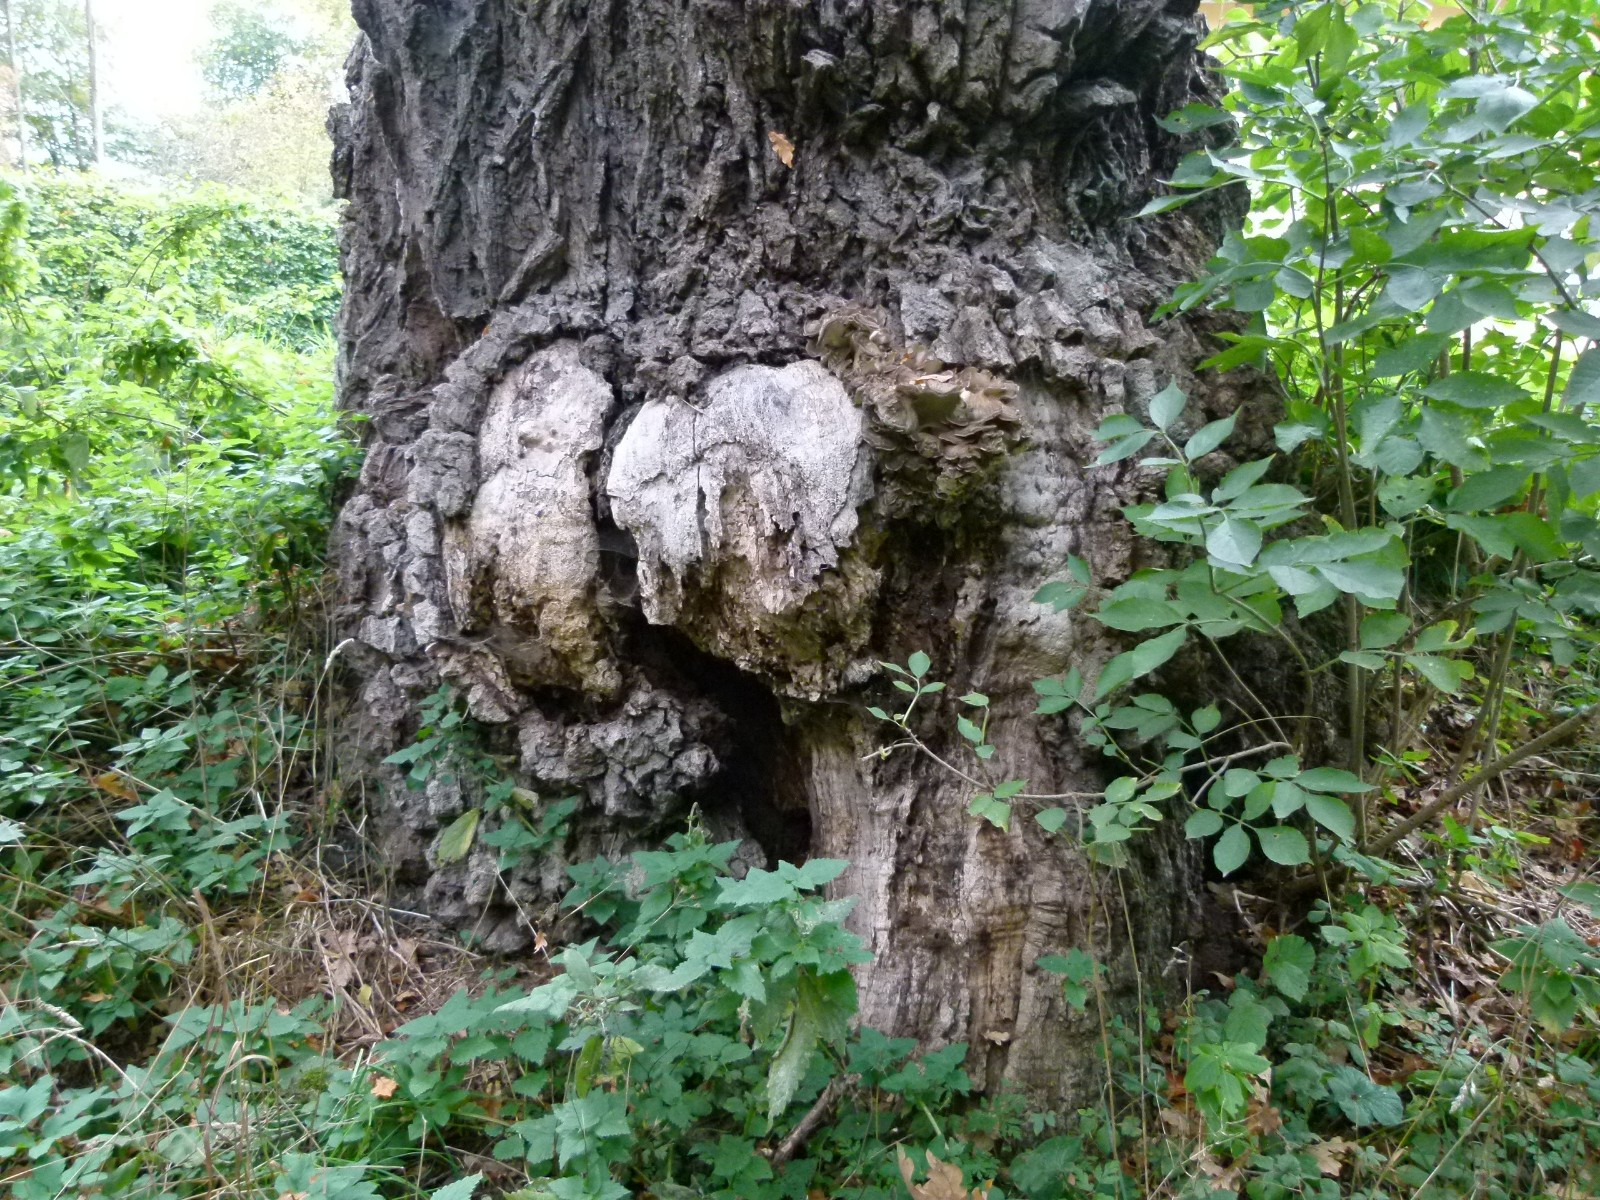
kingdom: Fungi
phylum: Basidiomycota
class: Agaricomycetes
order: Polyporales
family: Grifolaceae
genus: Grifola
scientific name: Grifola frondosa
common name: tueporesvamp
